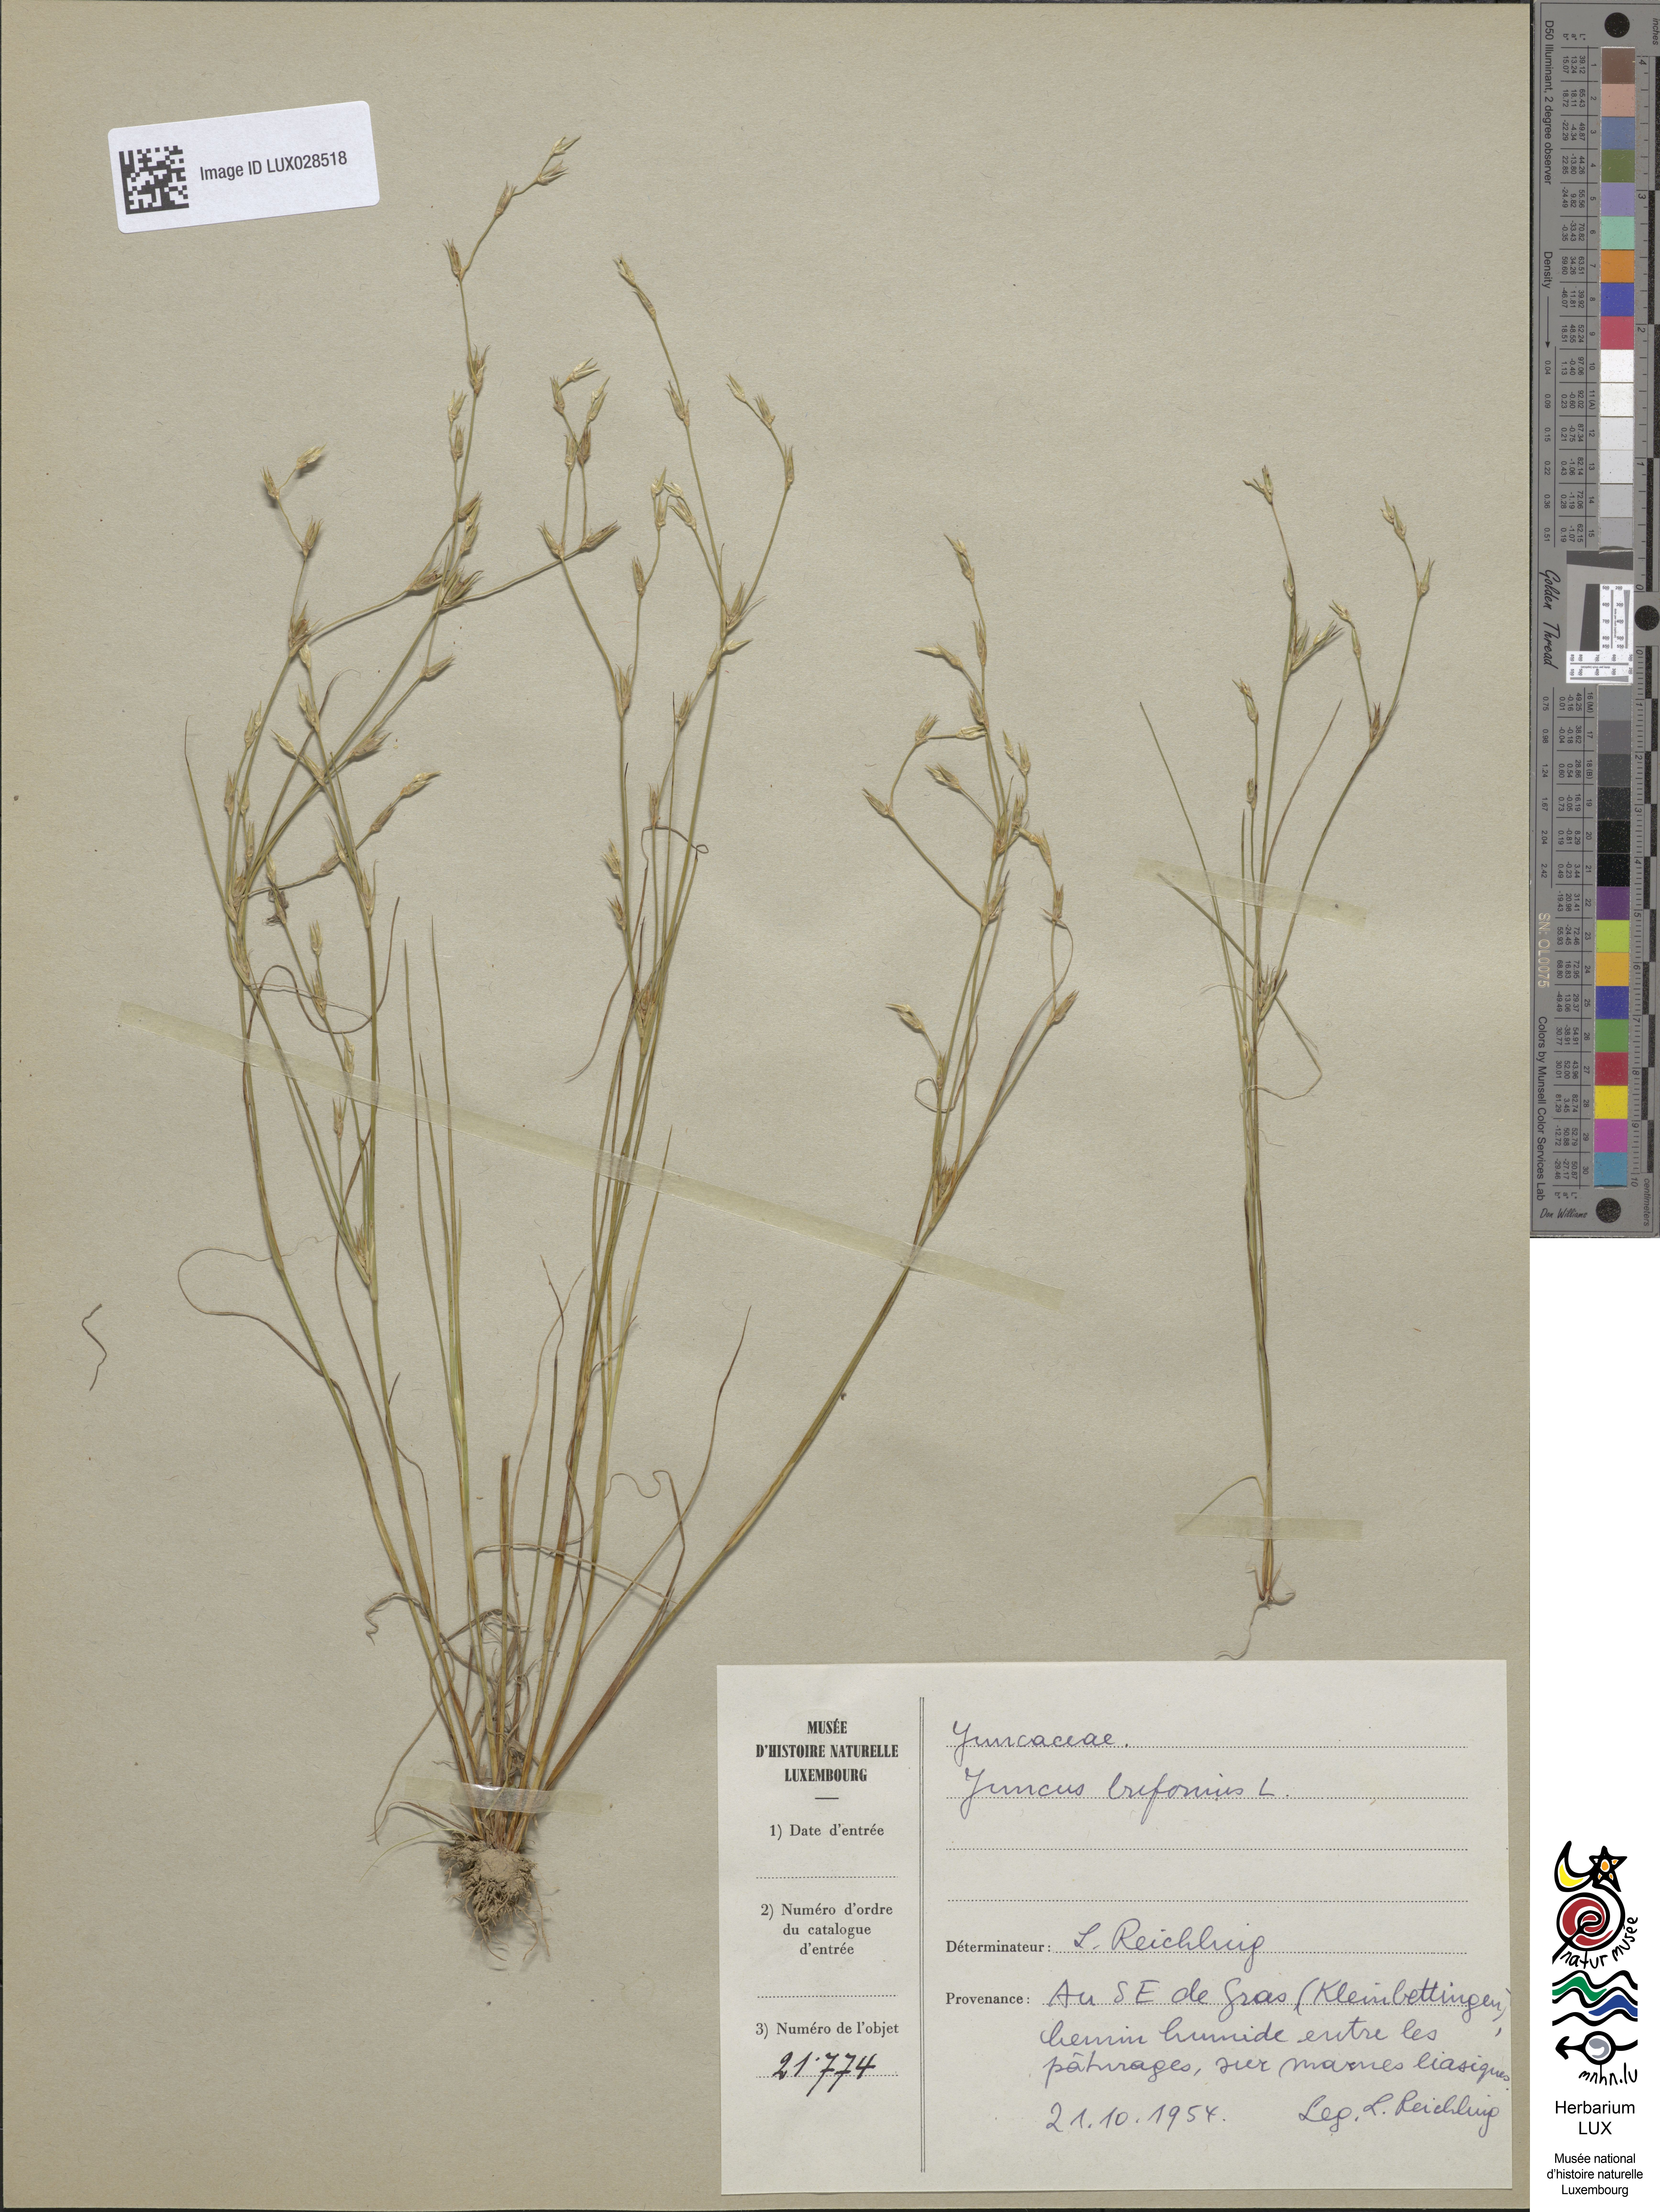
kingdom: Plantae
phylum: Tracheophyta
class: Liliopsida
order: Poales
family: Juncaceae
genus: Juncus
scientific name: Juncus bufonius
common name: Toad rush
